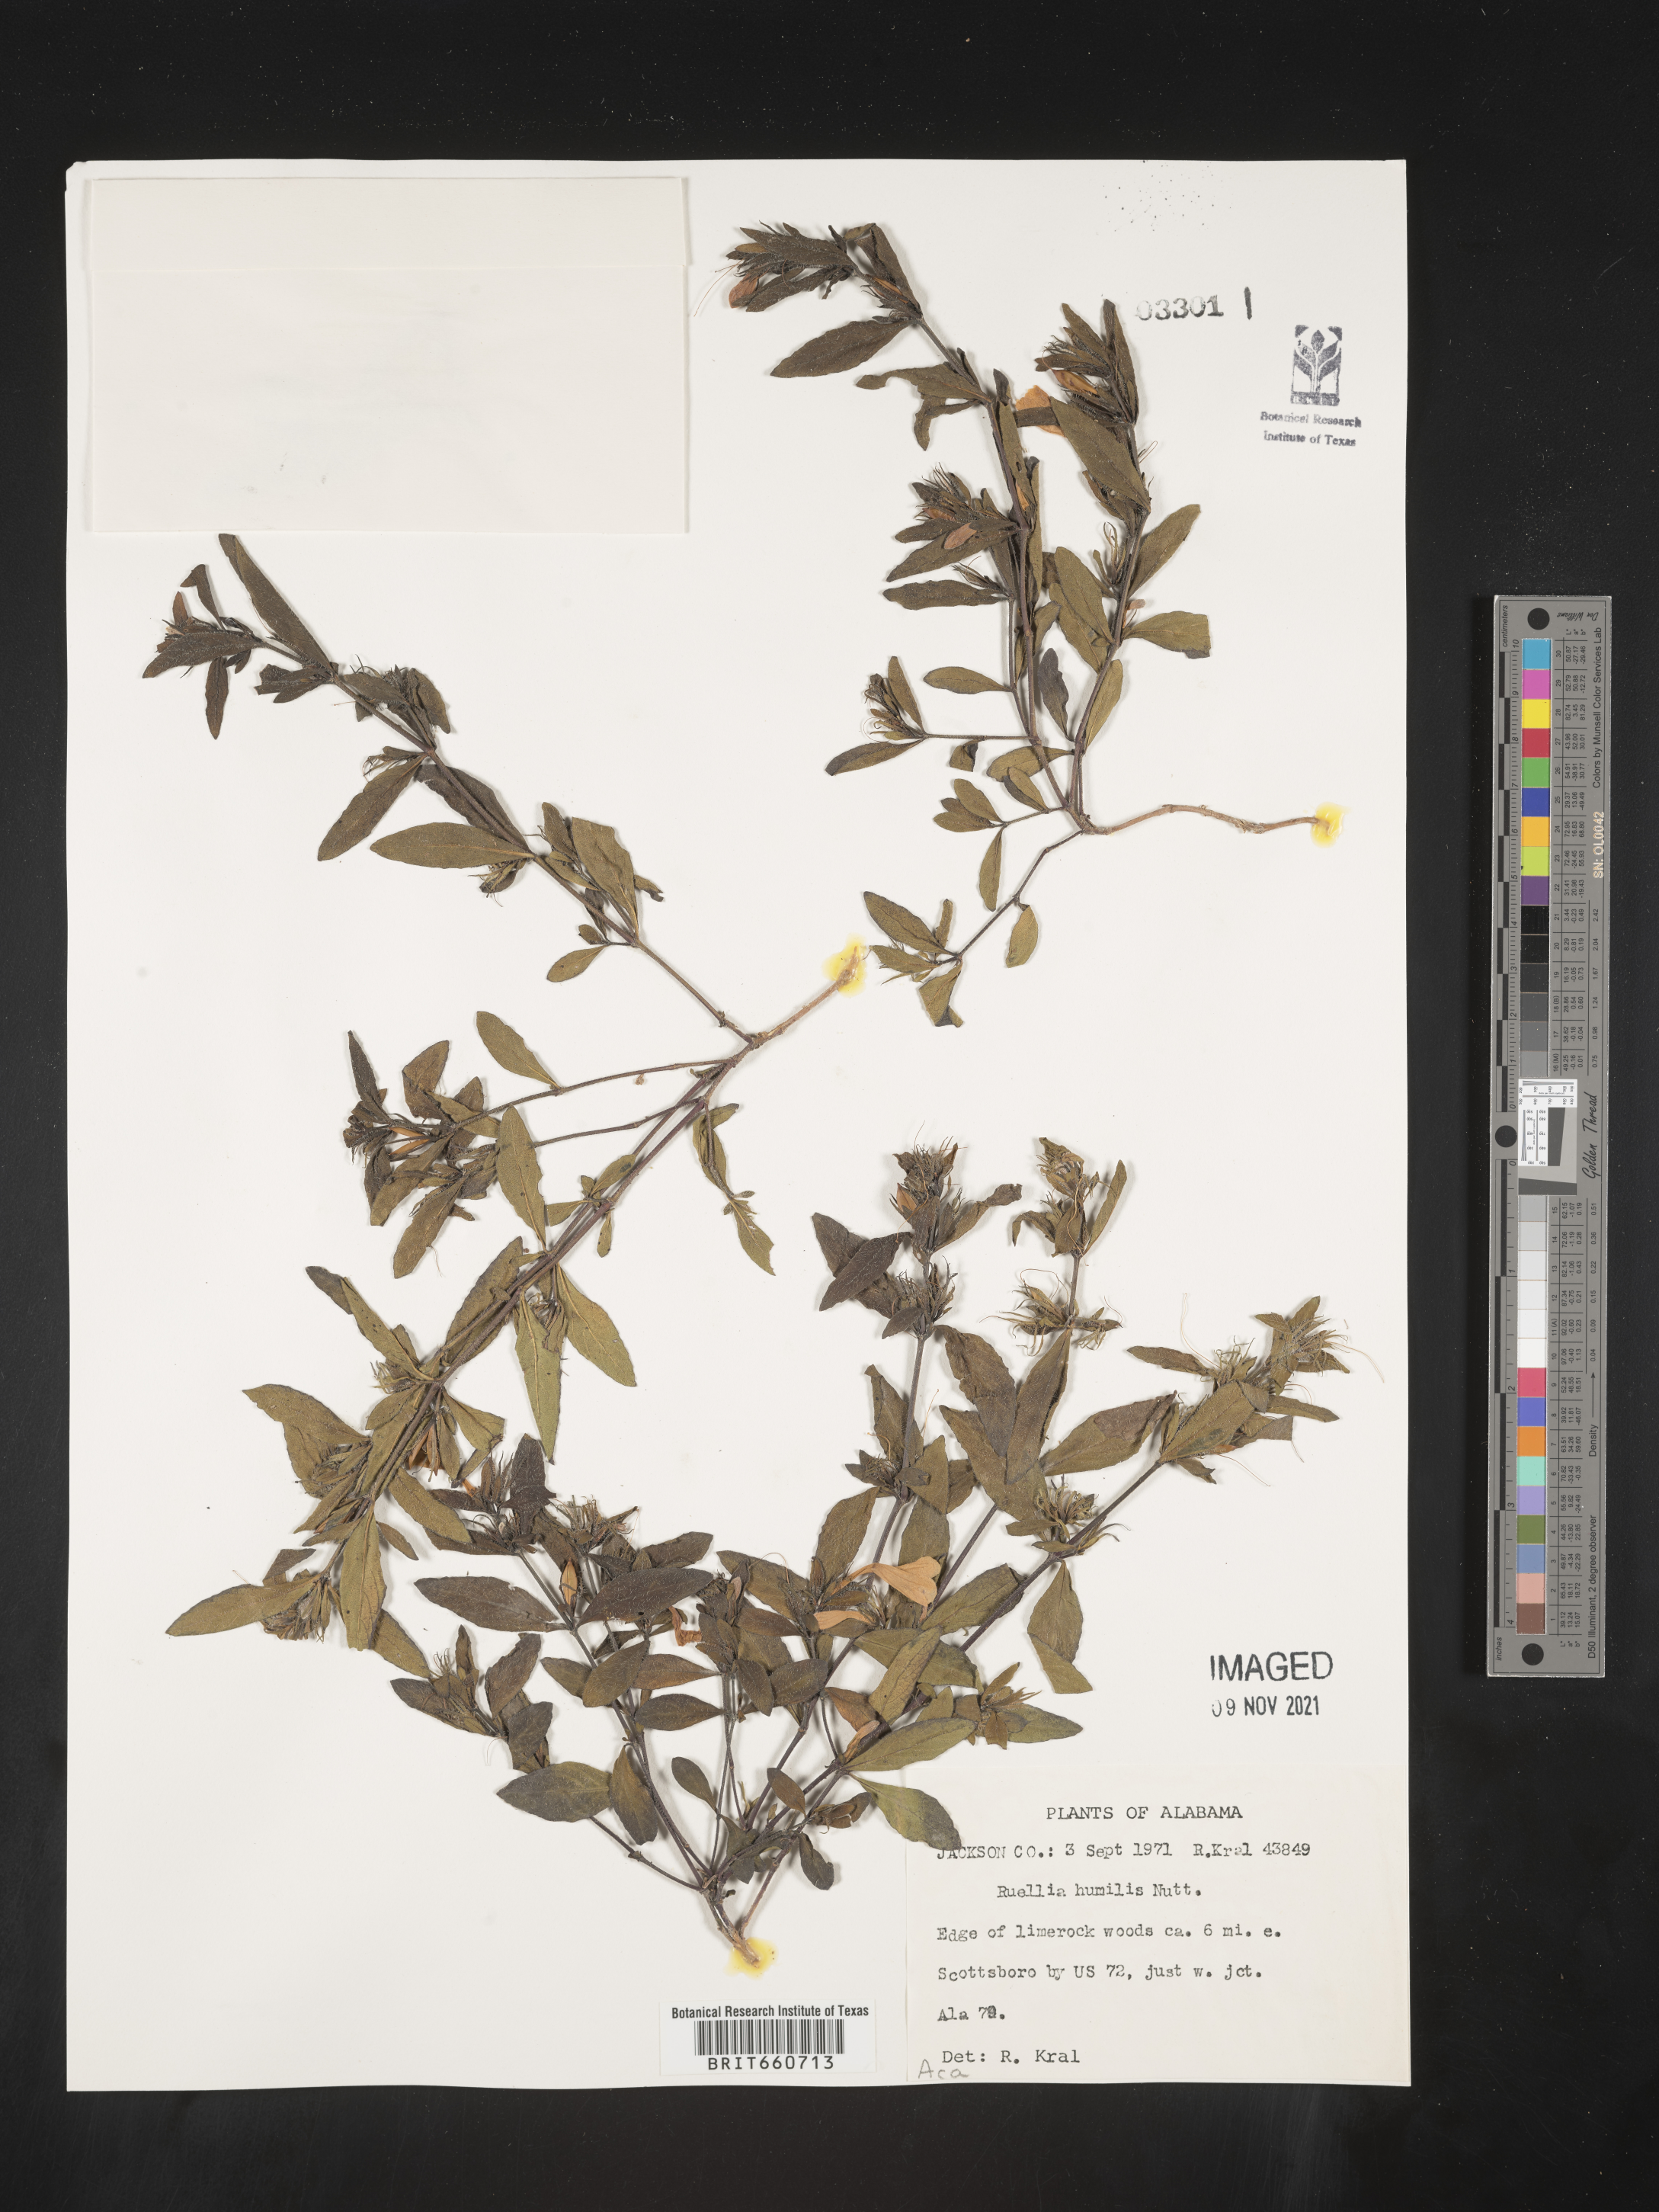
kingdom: Plantae
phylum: Tracheophyta
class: Magnoliopsida
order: Lamiales
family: Acanthaceae
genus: Ruellia
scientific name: Ruellia humilis
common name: Fringe-leaf ruellia
